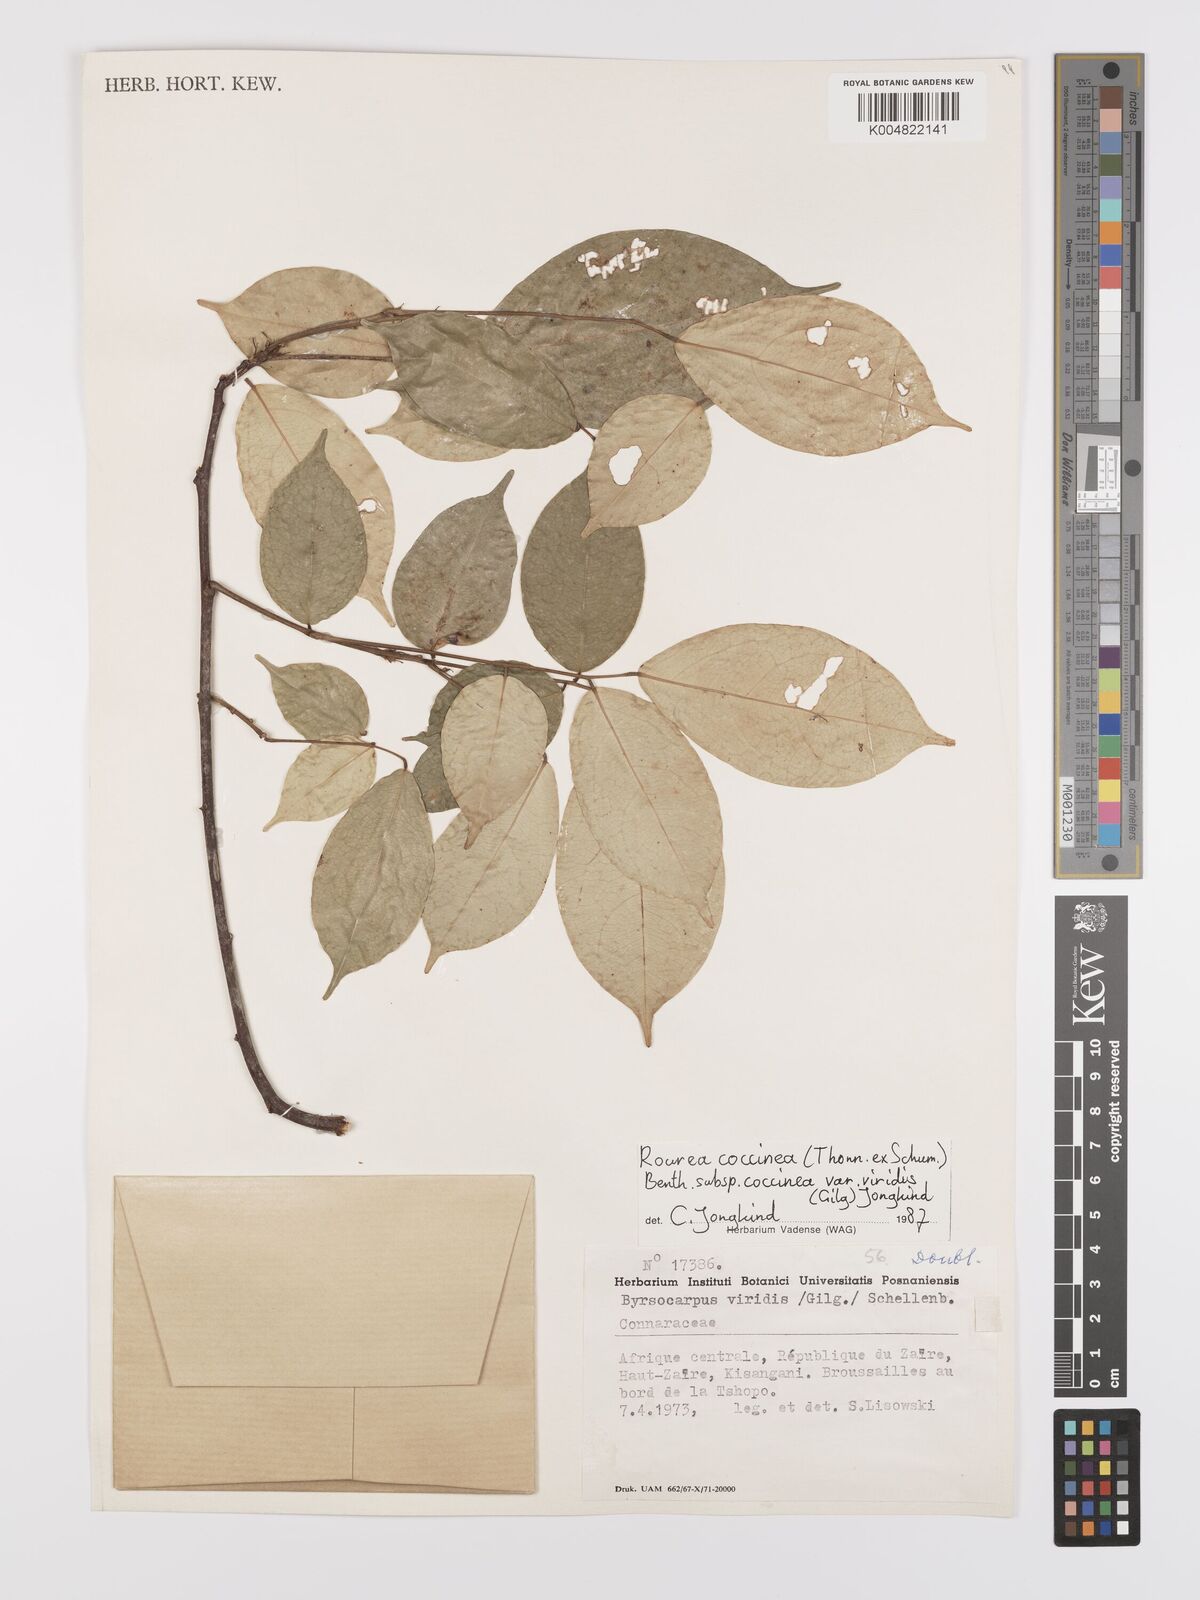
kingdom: Plantae
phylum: Tracheophyta
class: Magnoliopsida
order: Oxalidales
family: Connaraceae
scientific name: Connaraceae
